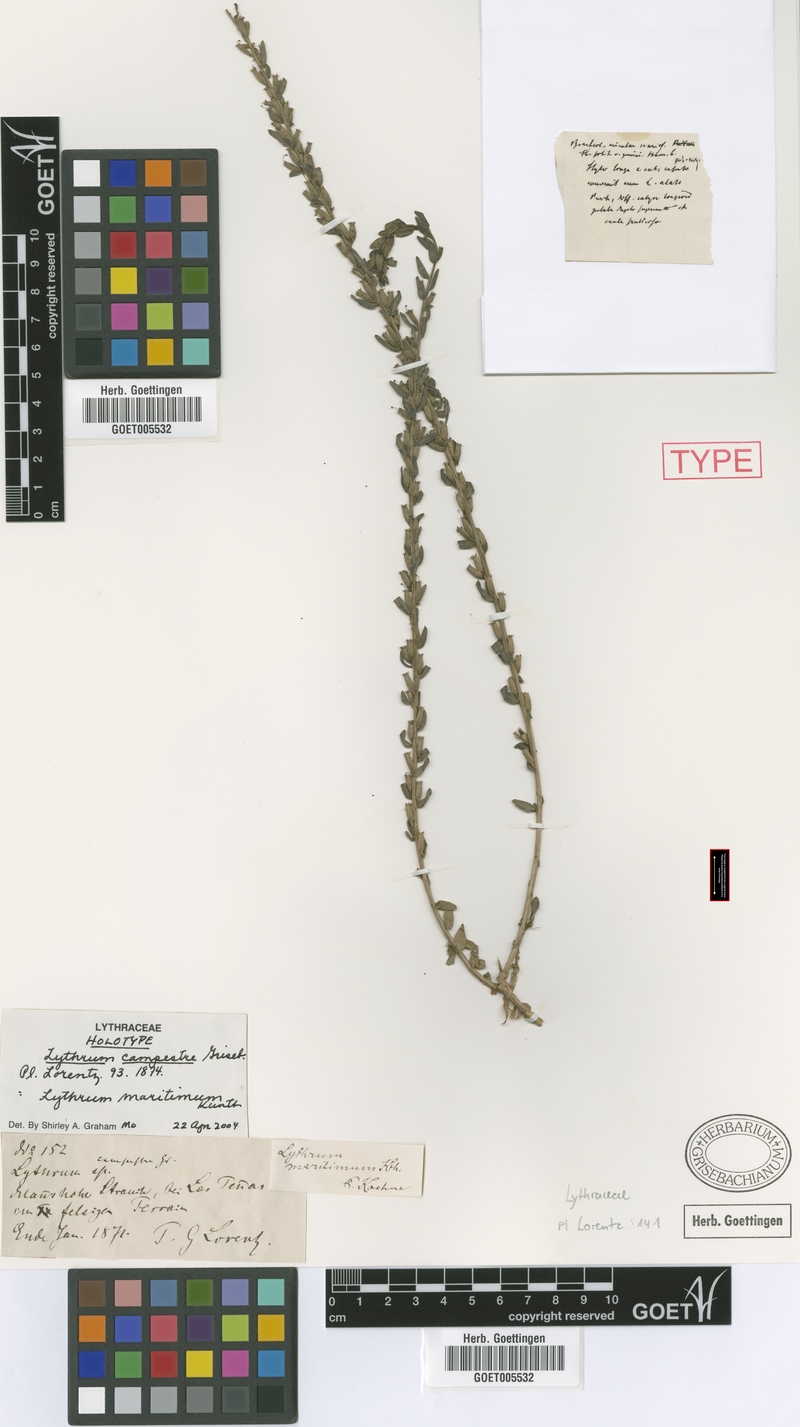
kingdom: Plantae
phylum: Tracheophyta
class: Magnoliopsida
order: Myrtales
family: Lythraceae
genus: Lythrum
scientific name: Lythrum maritimum
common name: Pukamole
